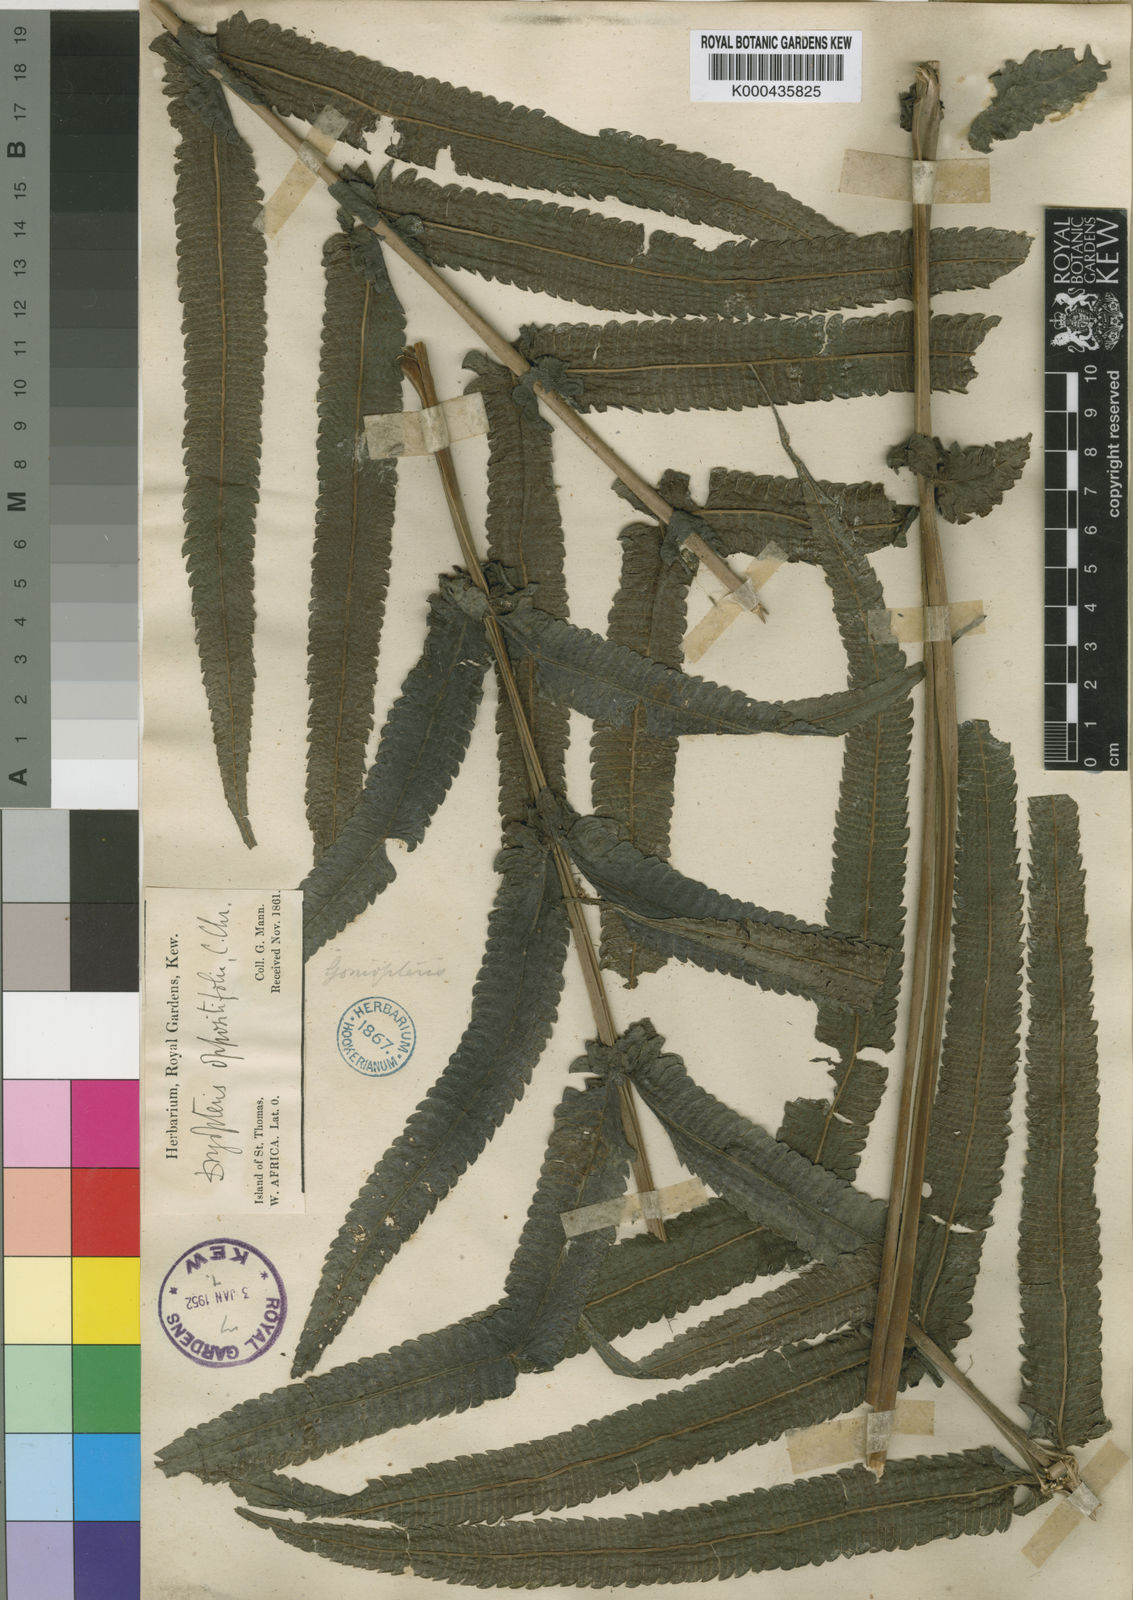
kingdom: Plantae
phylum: Tracheophyta
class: Polypodiopsida
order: Polypodiales
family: Thelypteridaceae
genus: Menisorus
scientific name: Menisorus oppositifolius
